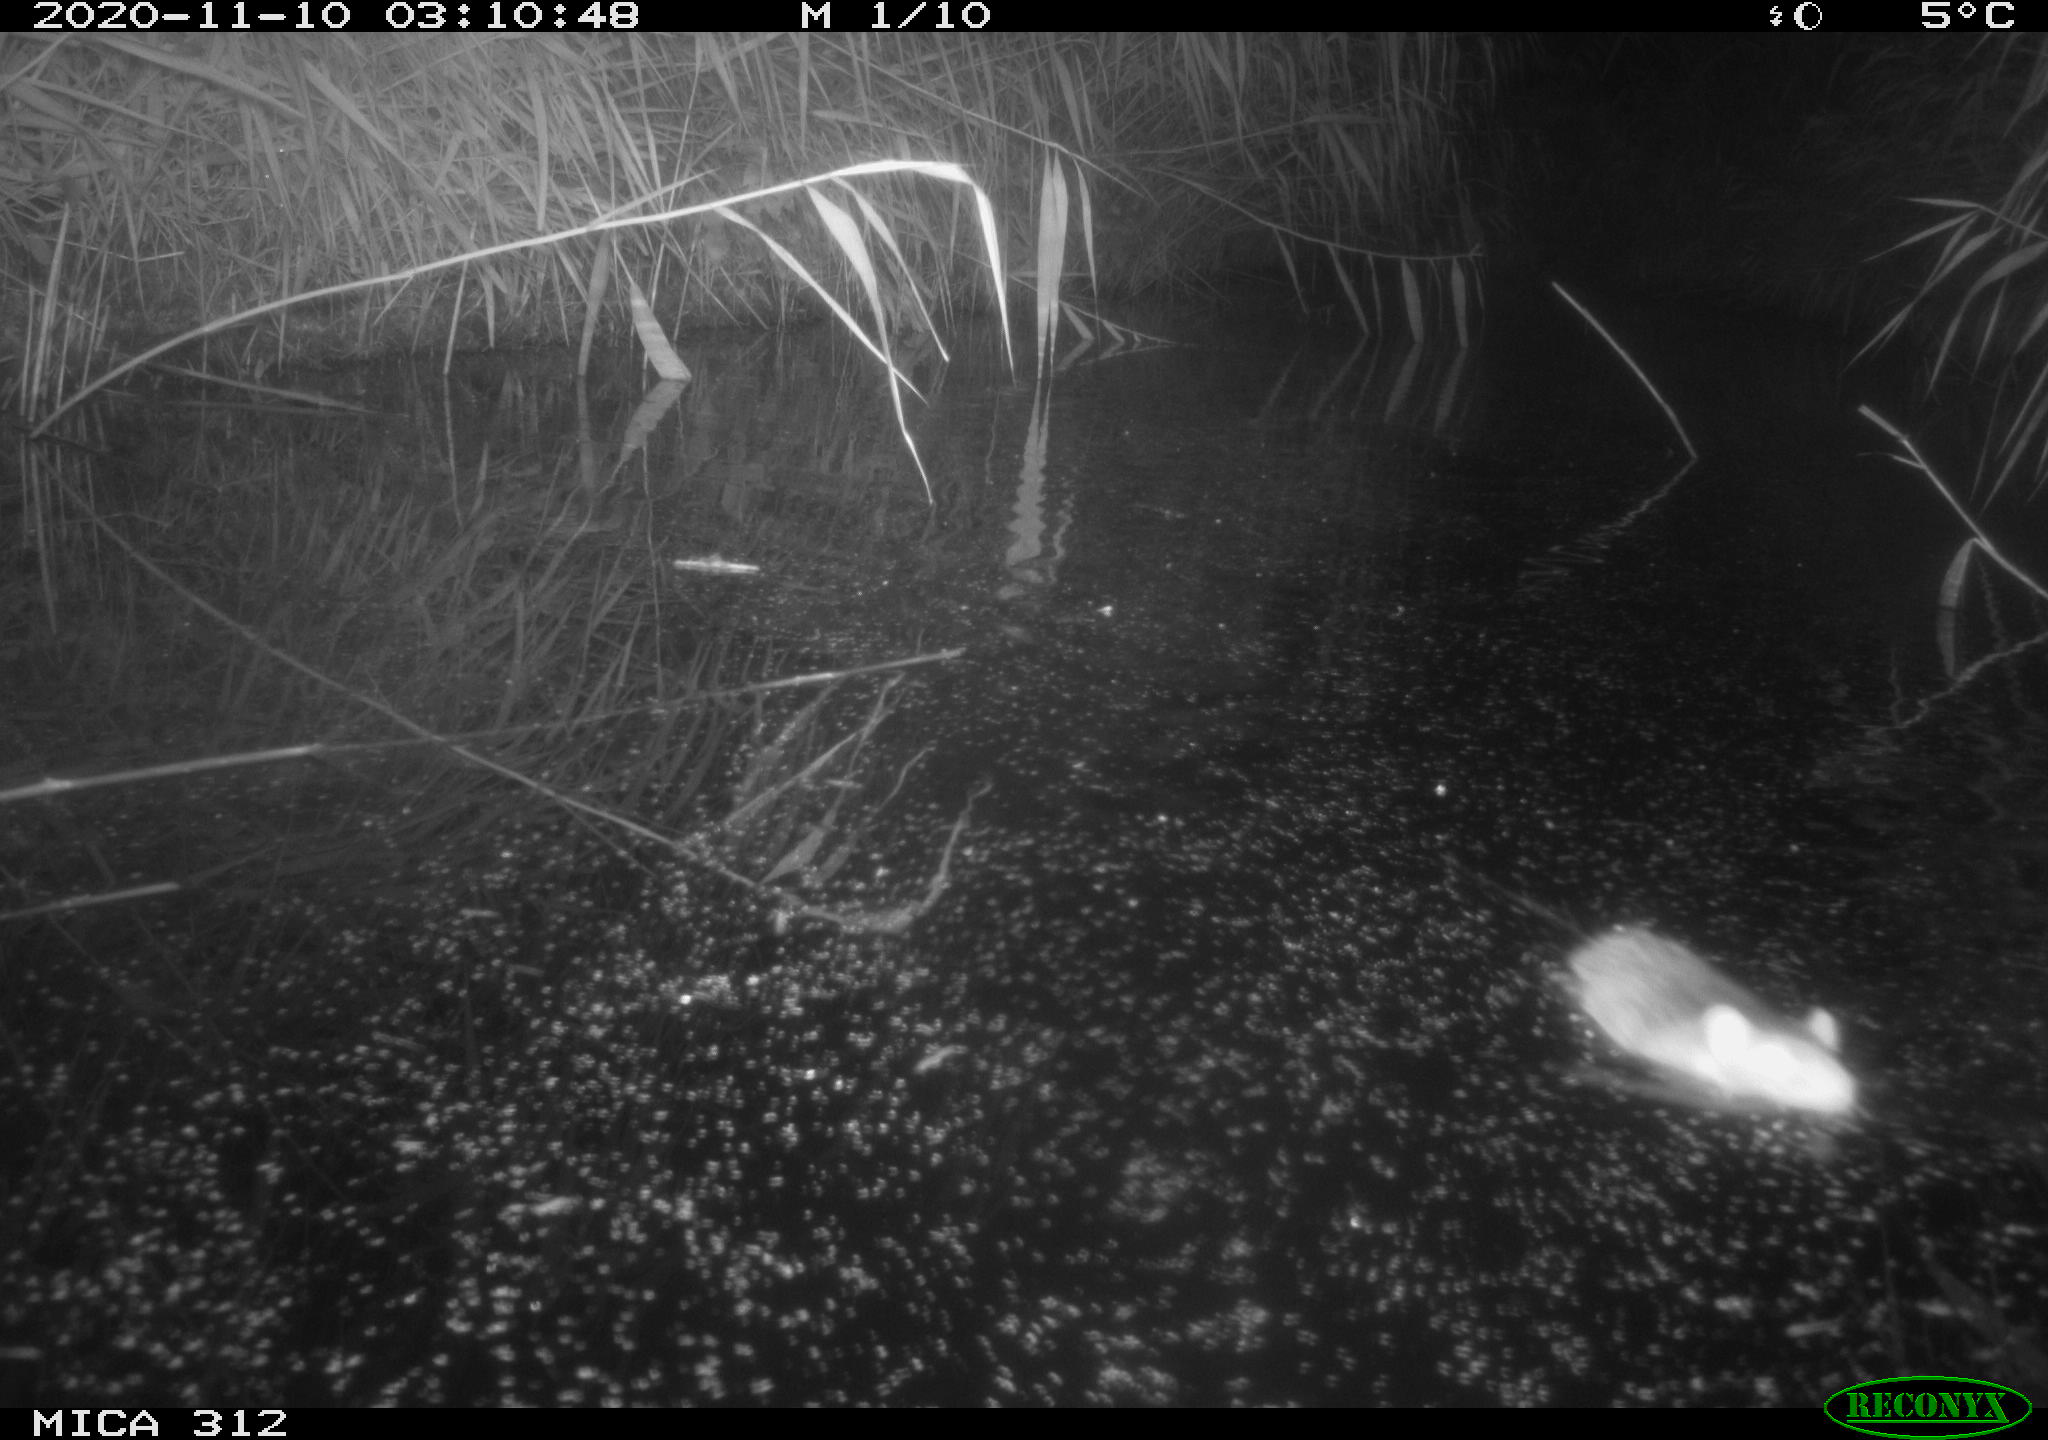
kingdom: Animalia
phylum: Chordata
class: Mammalia
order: Rodentia
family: Muridae
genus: Rattus
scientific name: Rattus norvegicus
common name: Brown rat
